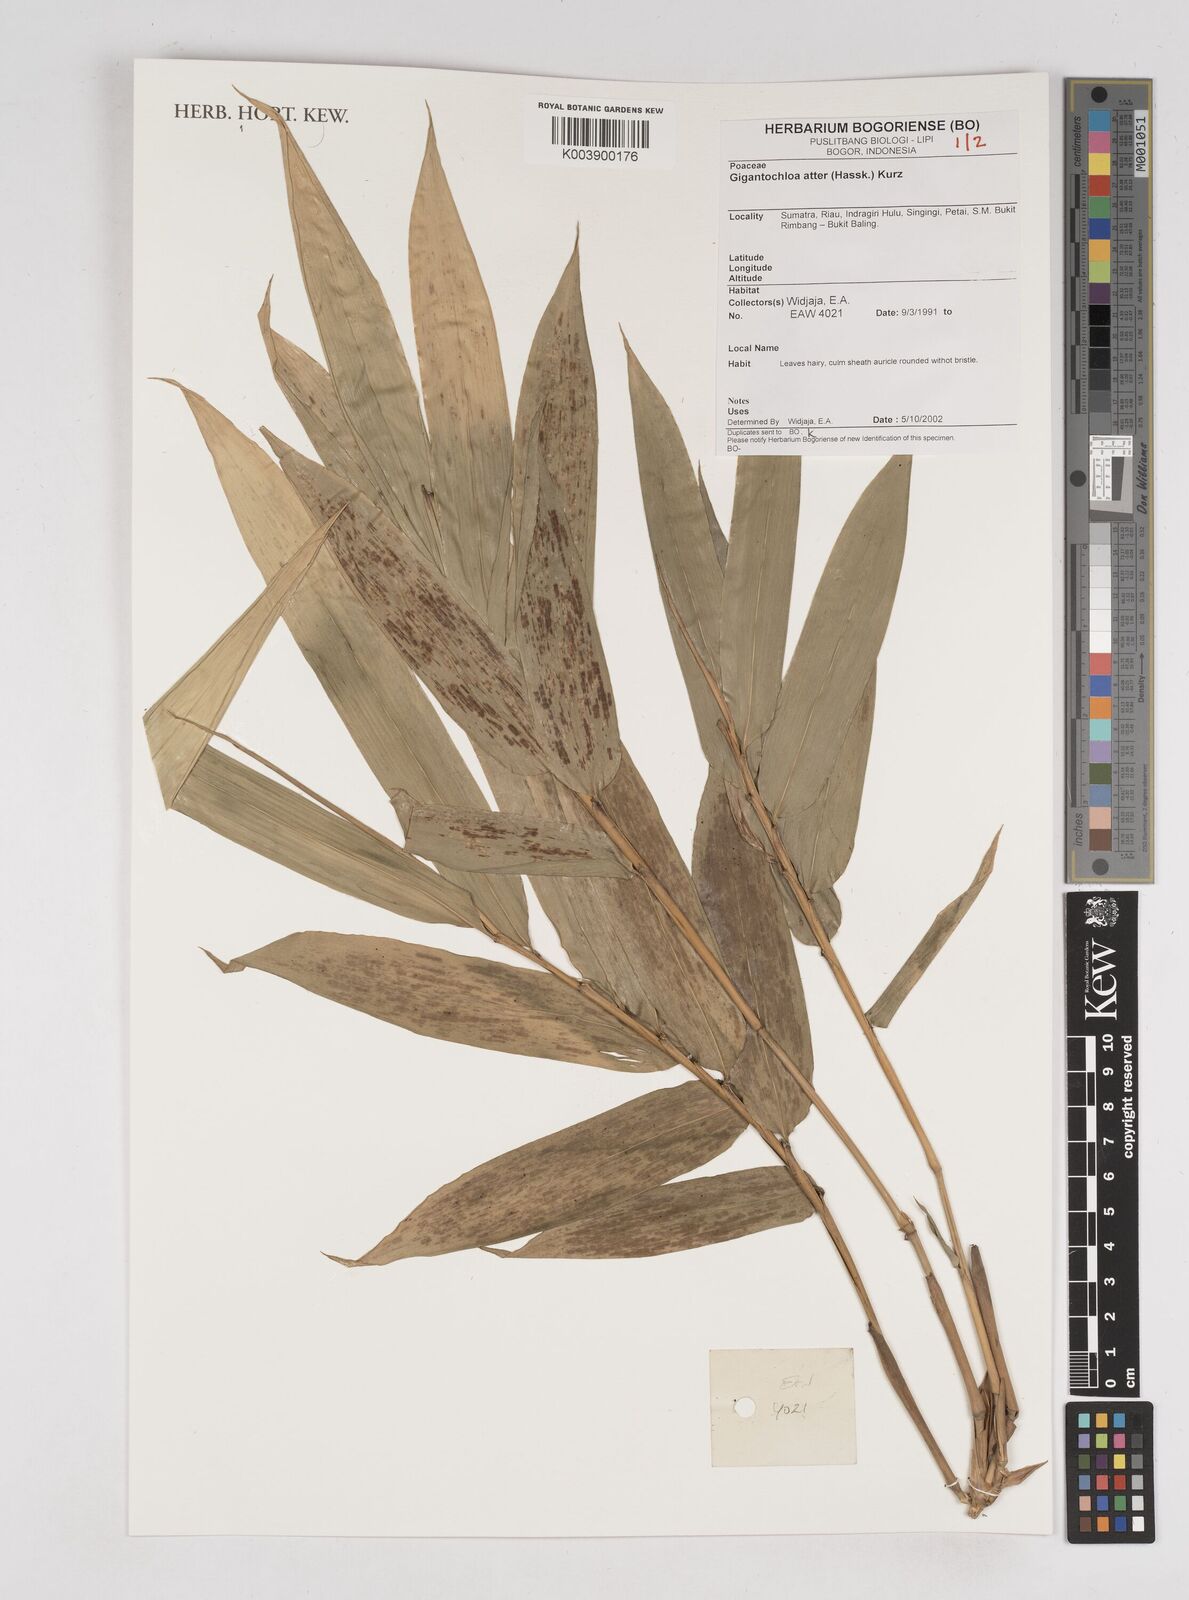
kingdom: Plantae
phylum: Tracheophyta
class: Liliopsida
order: Poales
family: Poaceae
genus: Gigantochloa
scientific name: Gigantochloa atter
